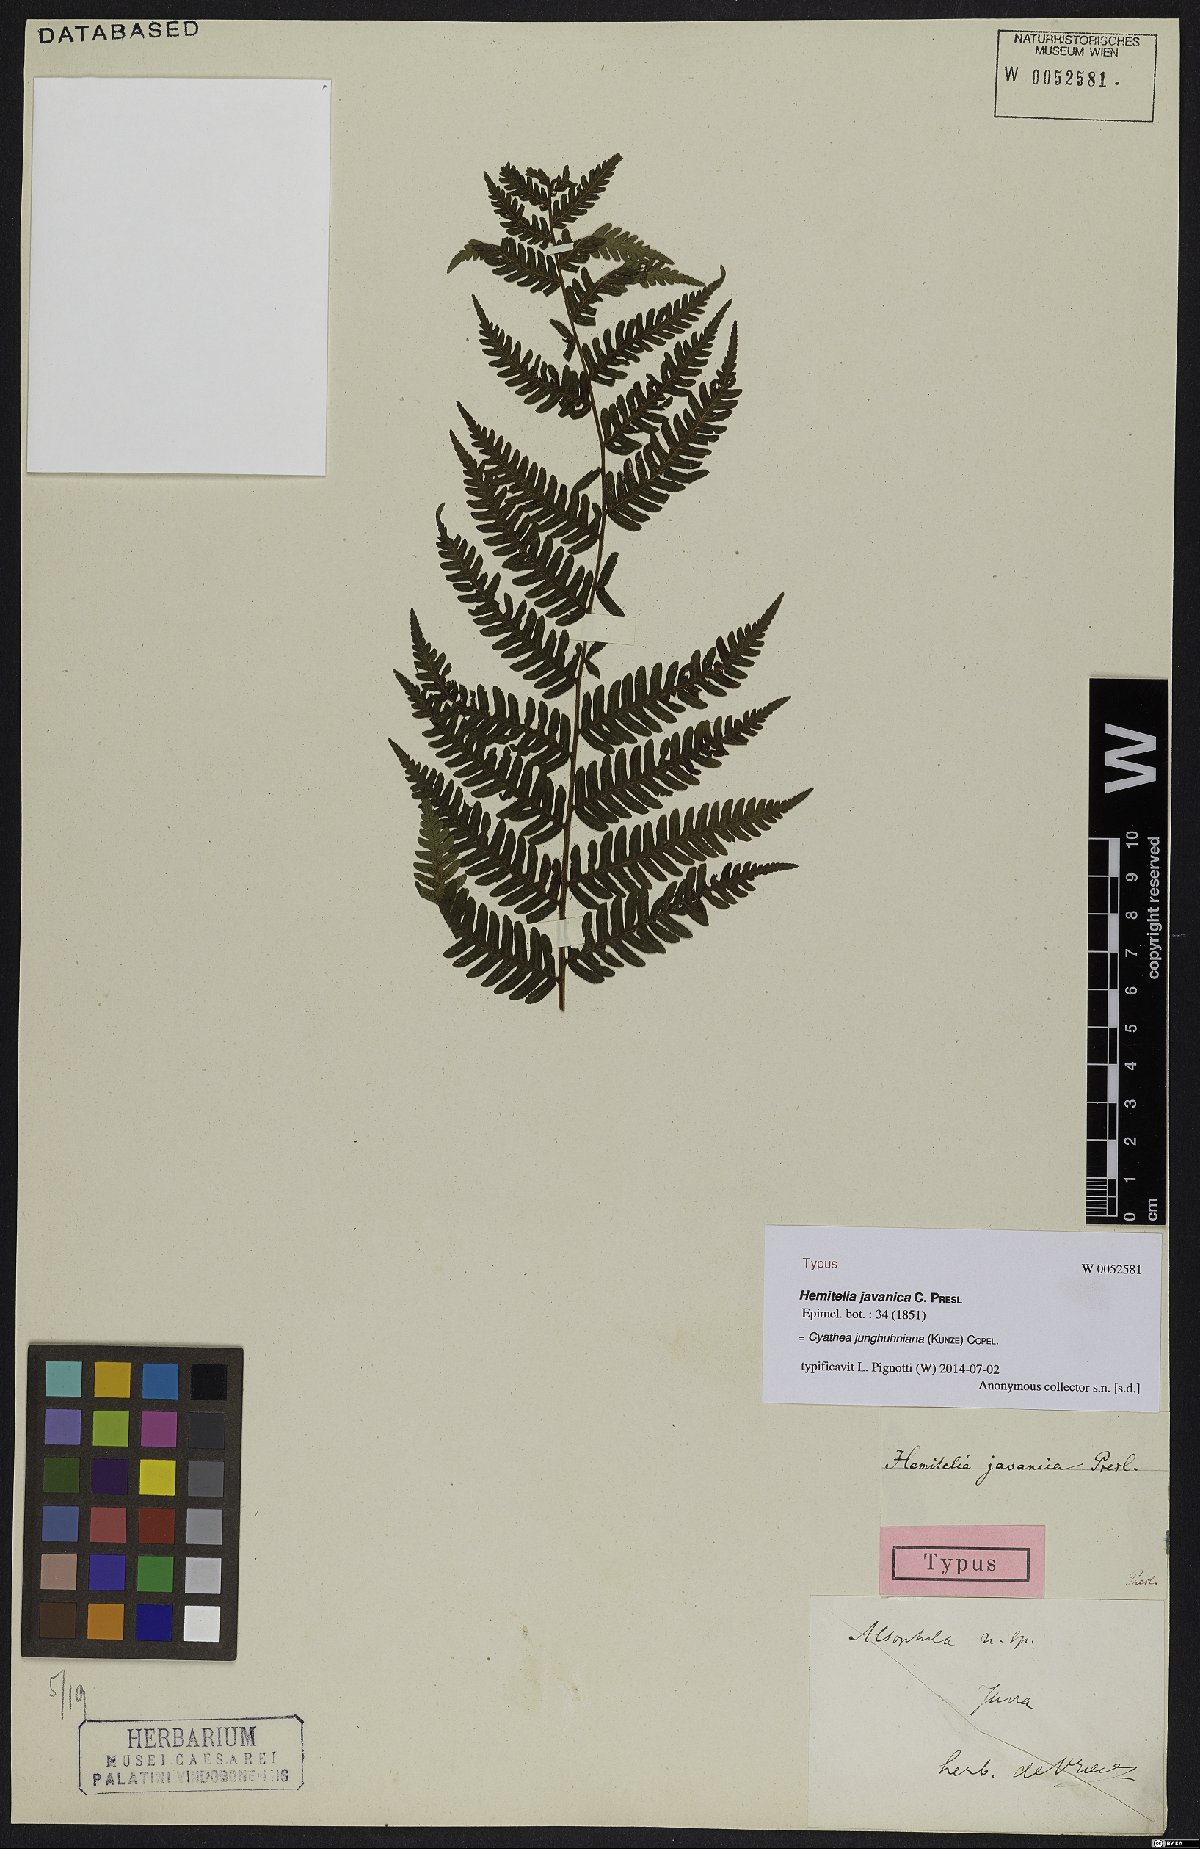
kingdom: Plantae
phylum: Tracheophyta
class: Polypodiopsida
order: Cyatheales
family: Cyatheaceae
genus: Alsophila
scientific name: Alsophila junghuhniana
